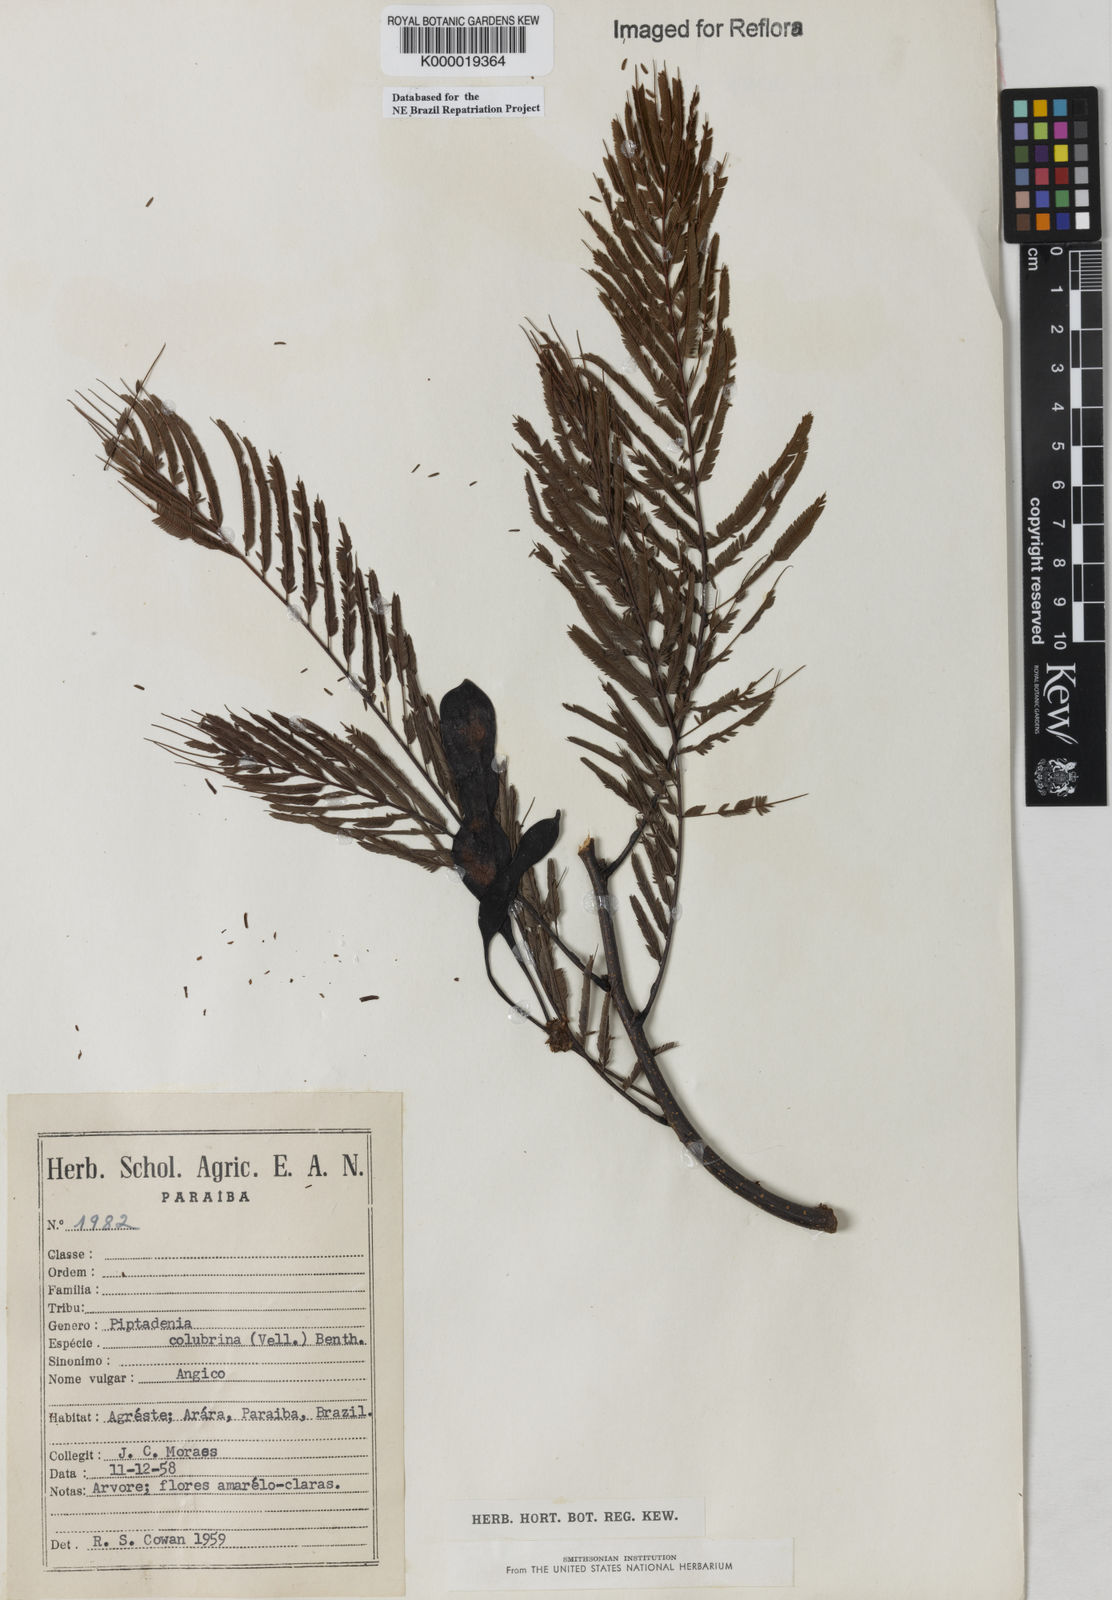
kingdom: Plantae
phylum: Tracheophyta
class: Magnoliopsida
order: Fabales
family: Fabaceae
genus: Anadenanthera
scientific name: Anadenanthera colubrina
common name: Curupay
